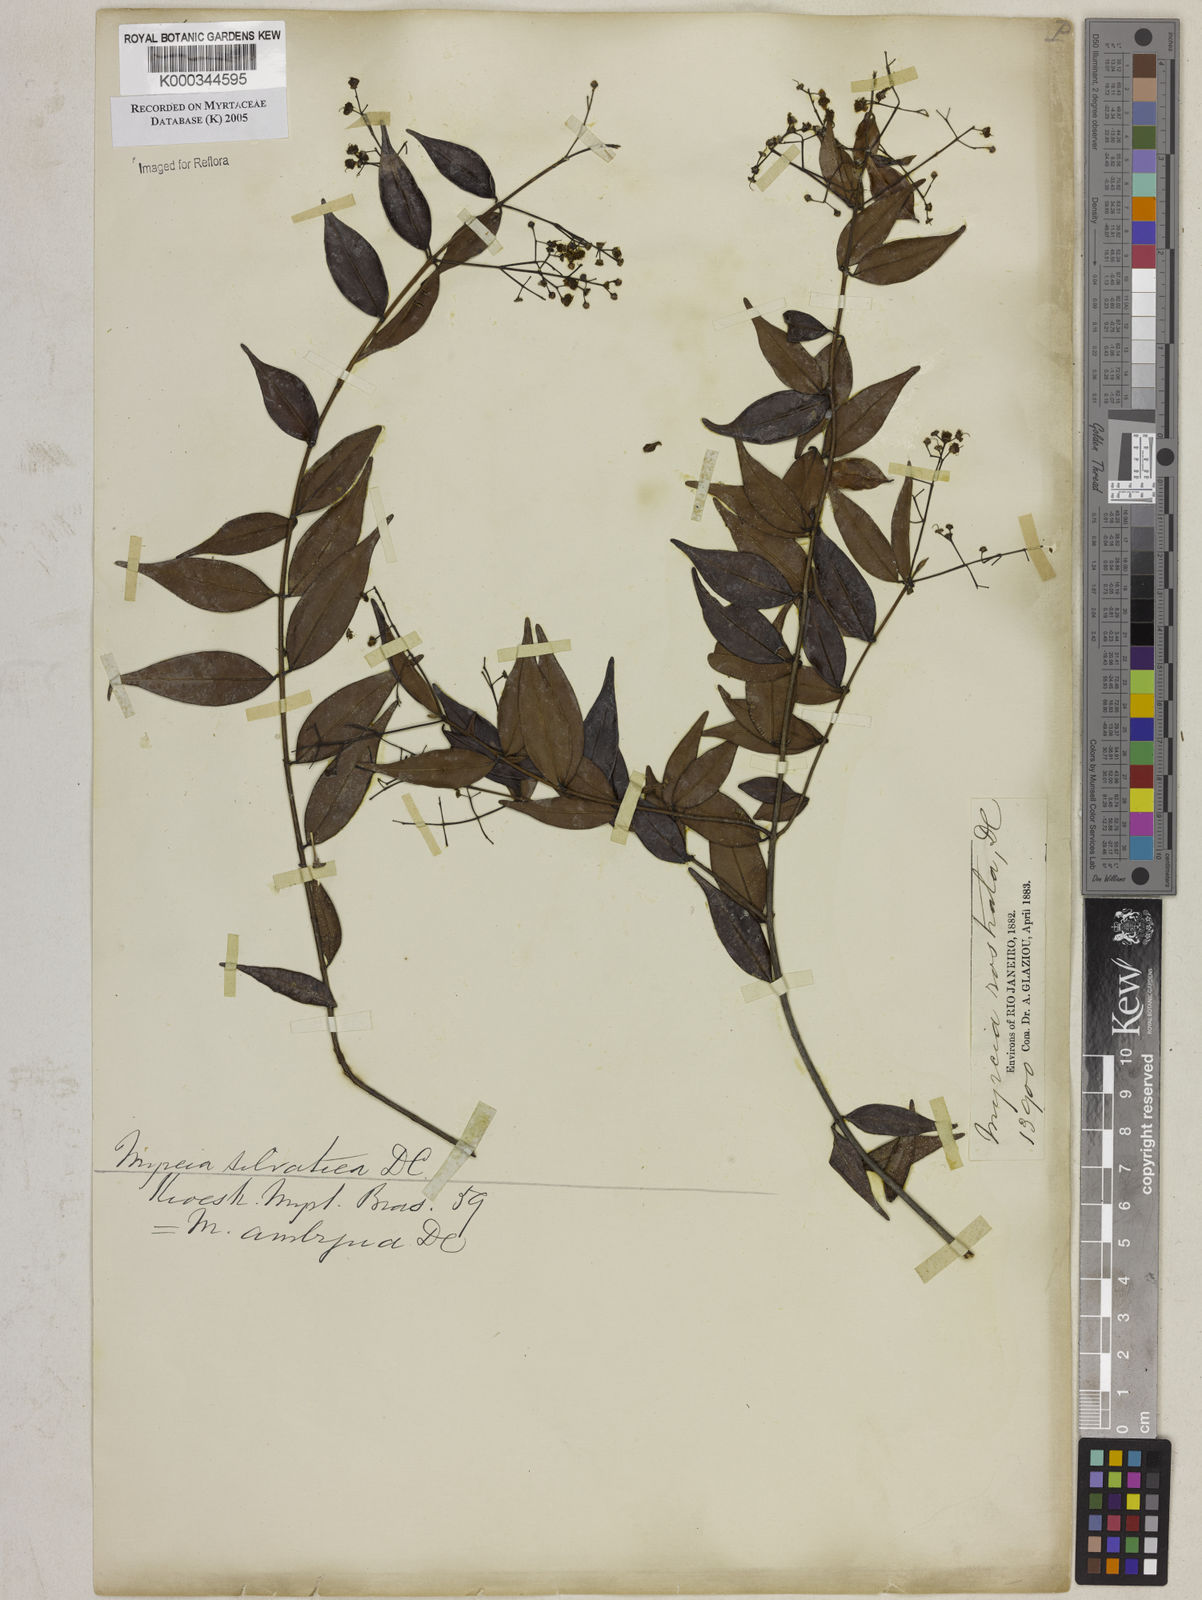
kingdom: Plantae
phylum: Tracheophyta
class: Magnoliopsida
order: Myrtales
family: Myrtaceae
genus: Myrcia
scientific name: Myrcia sylvatica
